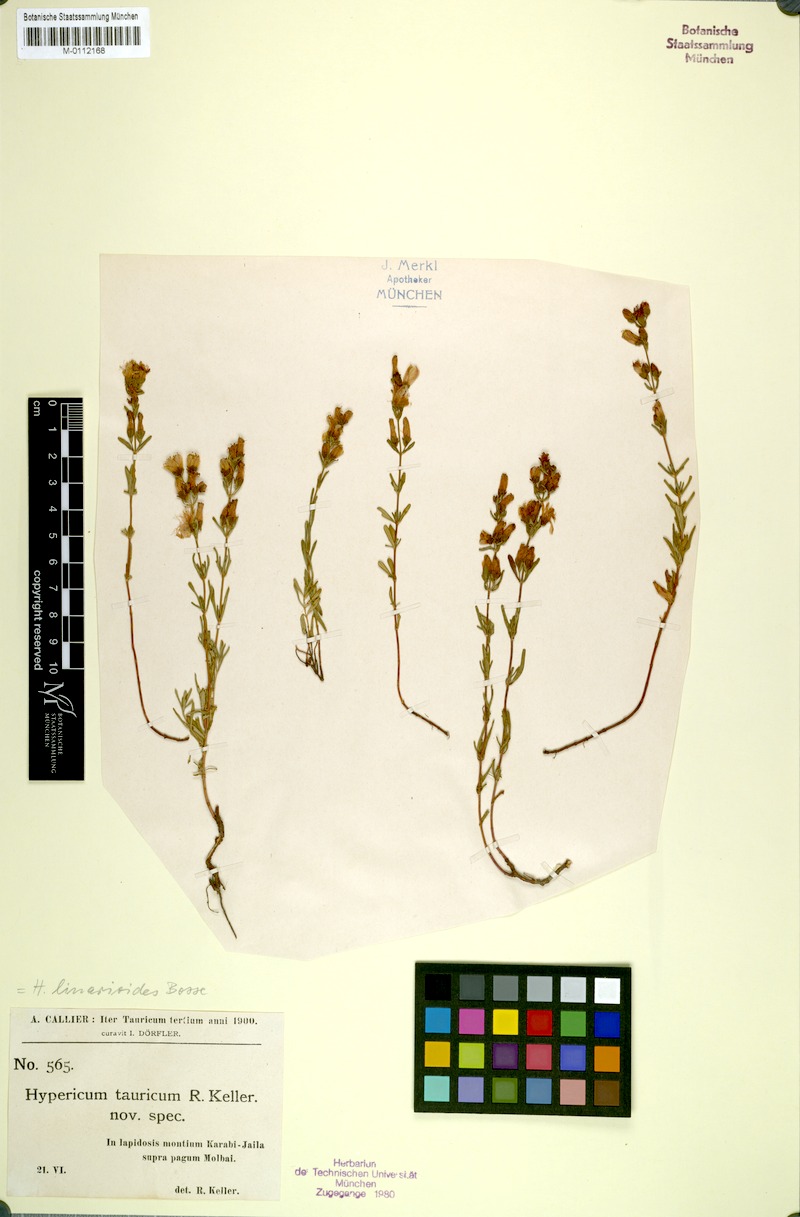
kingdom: Plantae
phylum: Tracheophyta
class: Magnoliopsida
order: Malpighiales
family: Hypericaceae
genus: Hypericum
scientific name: Hypericum linarioides
